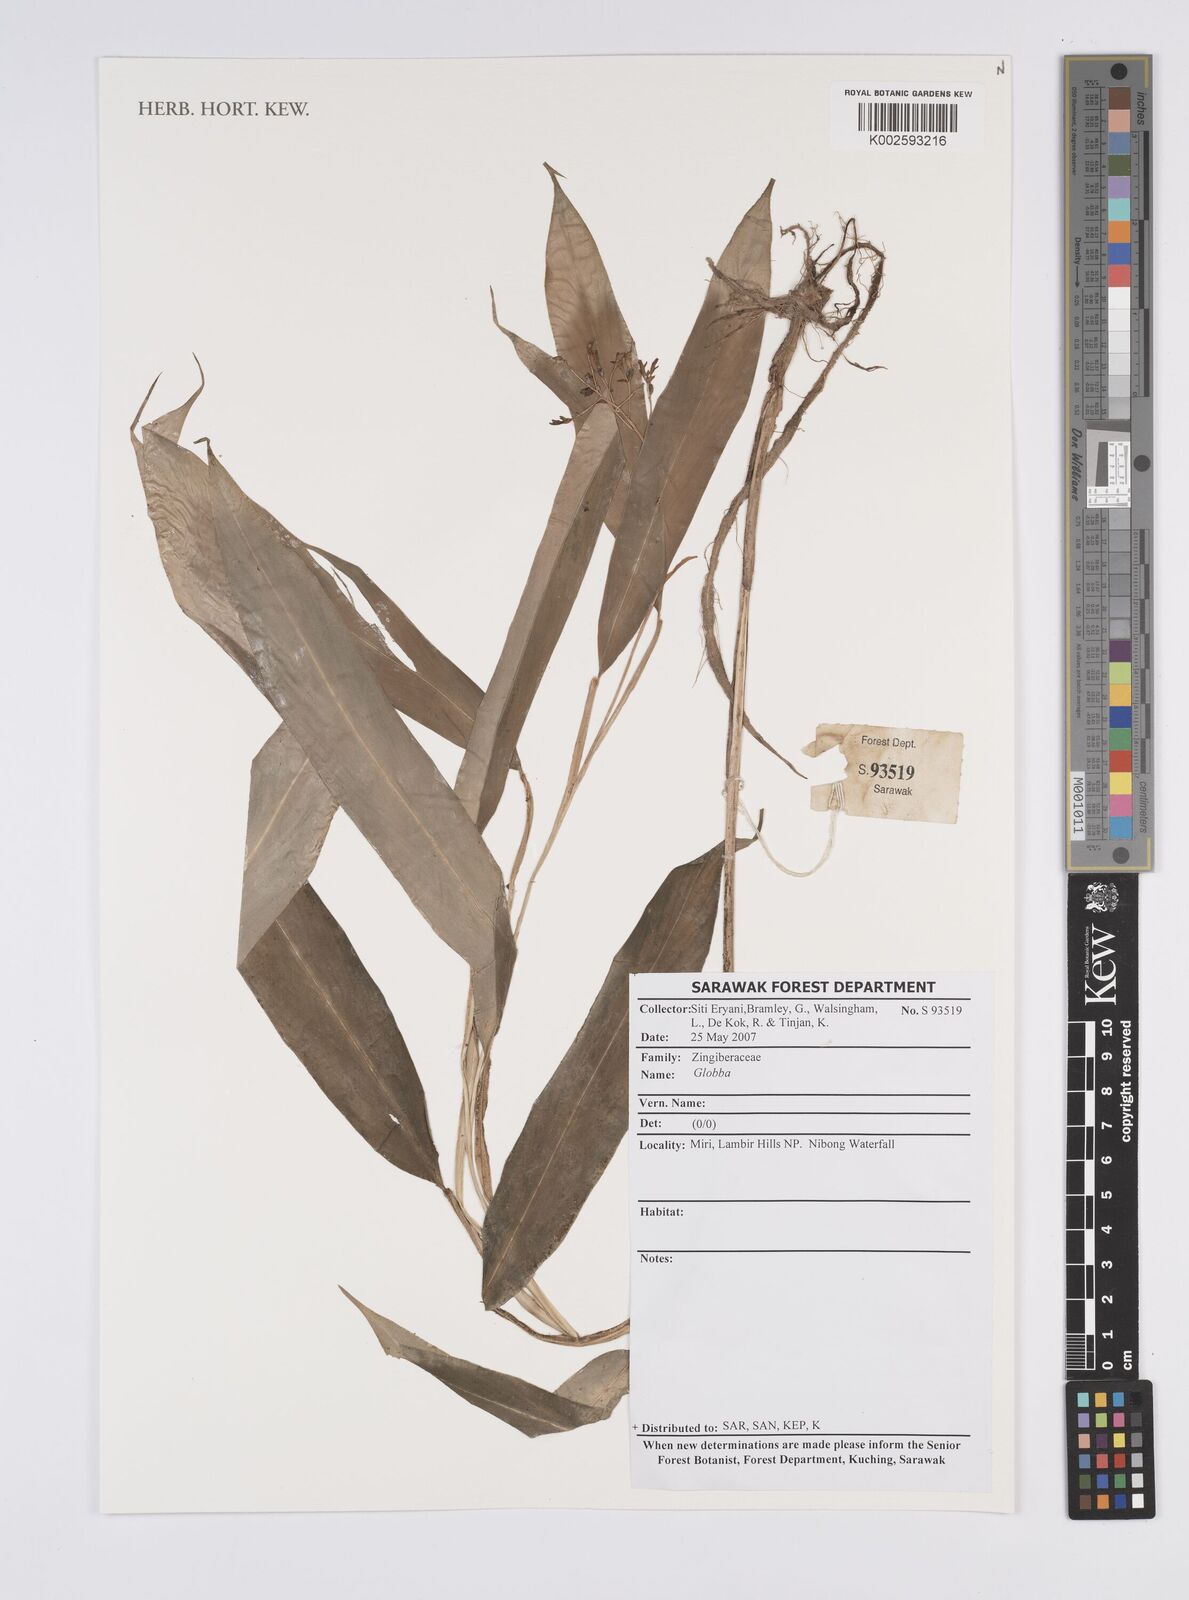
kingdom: Plantae
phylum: Tracheophyta
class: Liliopsida
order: Zingiberales
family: Zingiberaceae
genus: Globba
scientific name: Globba
